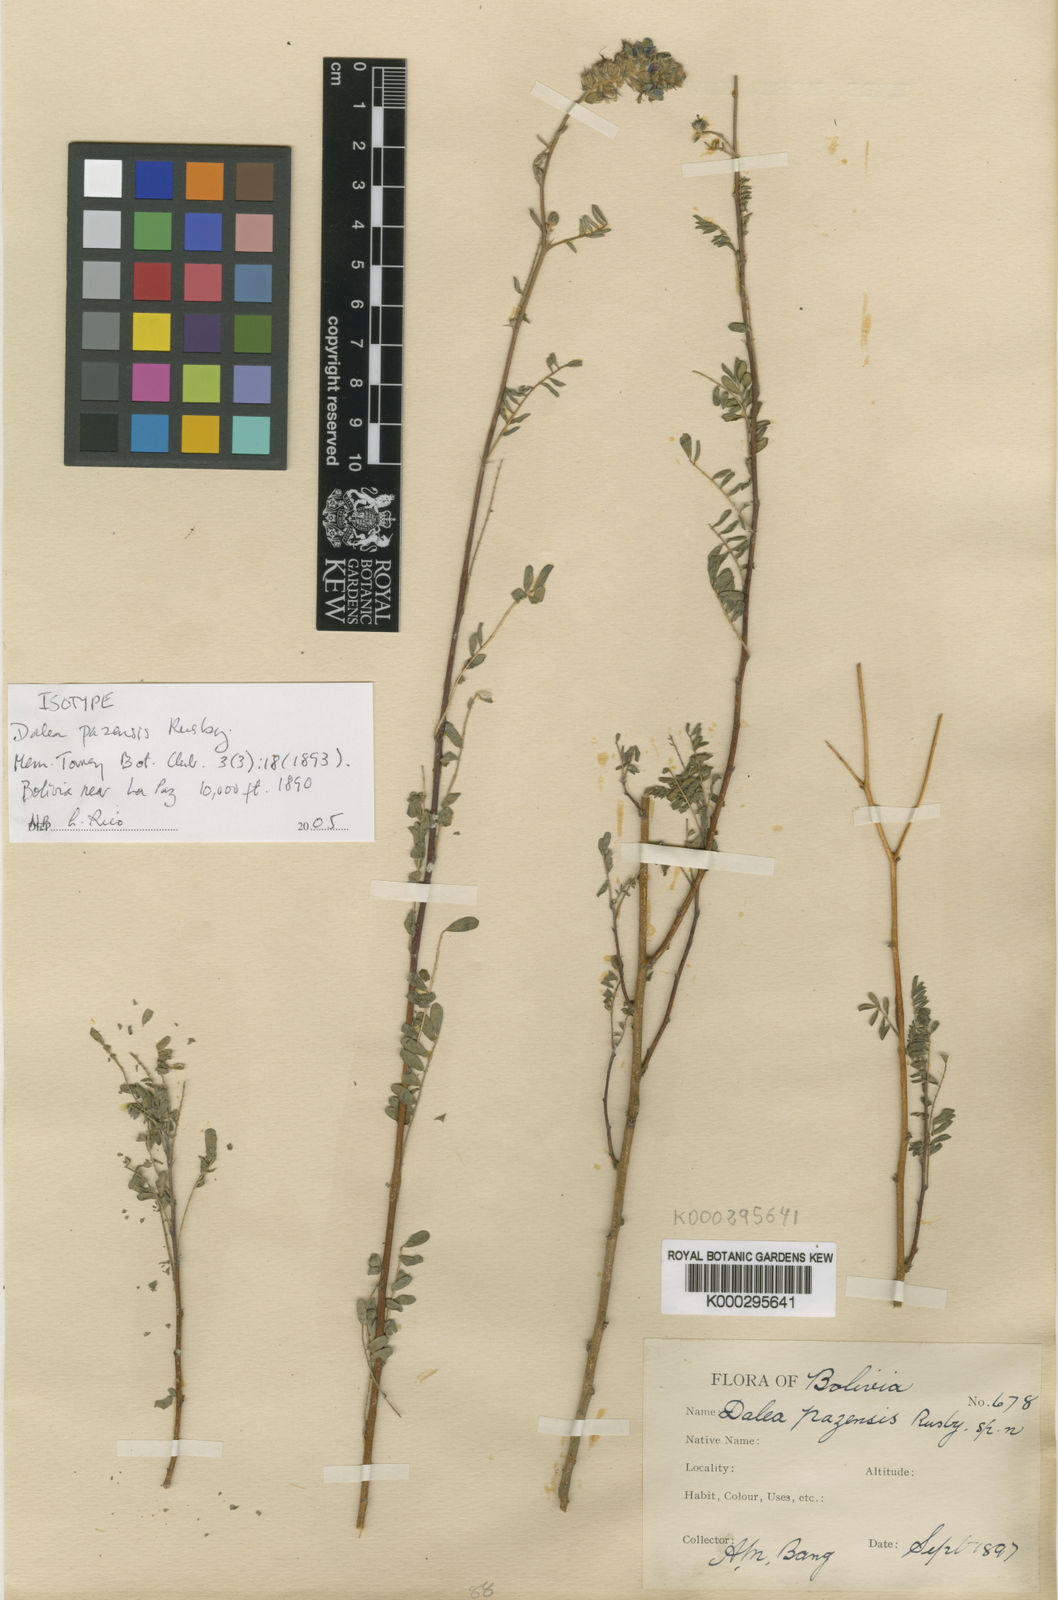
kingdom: Plantae
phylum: Tracheophyta
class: Magnoliopsida
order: Fabales
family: Fabaceae
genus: Dalea
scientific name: Dalea pazensis
